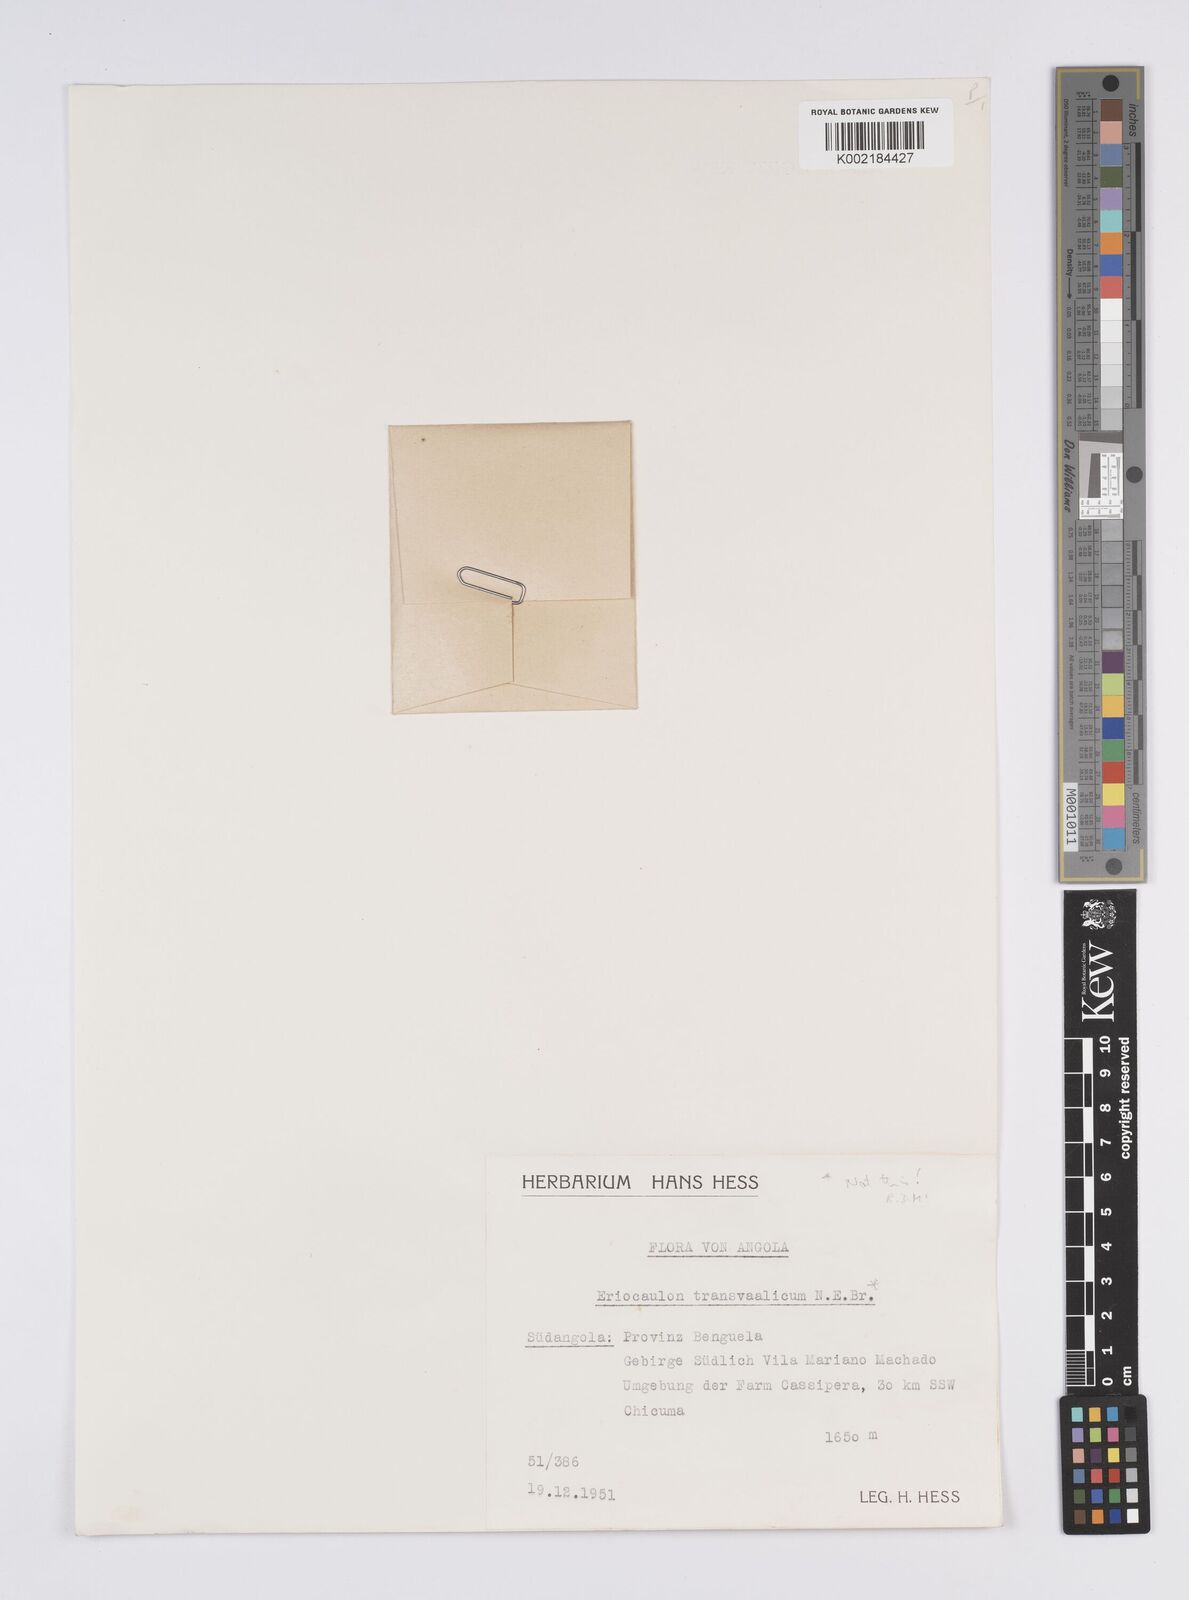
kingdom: Plantae
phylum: Tracheophyta
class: Liliopsida
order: Poales
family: Eriocaulaceae
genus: Eriocaulon
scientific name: Eriocaulon
